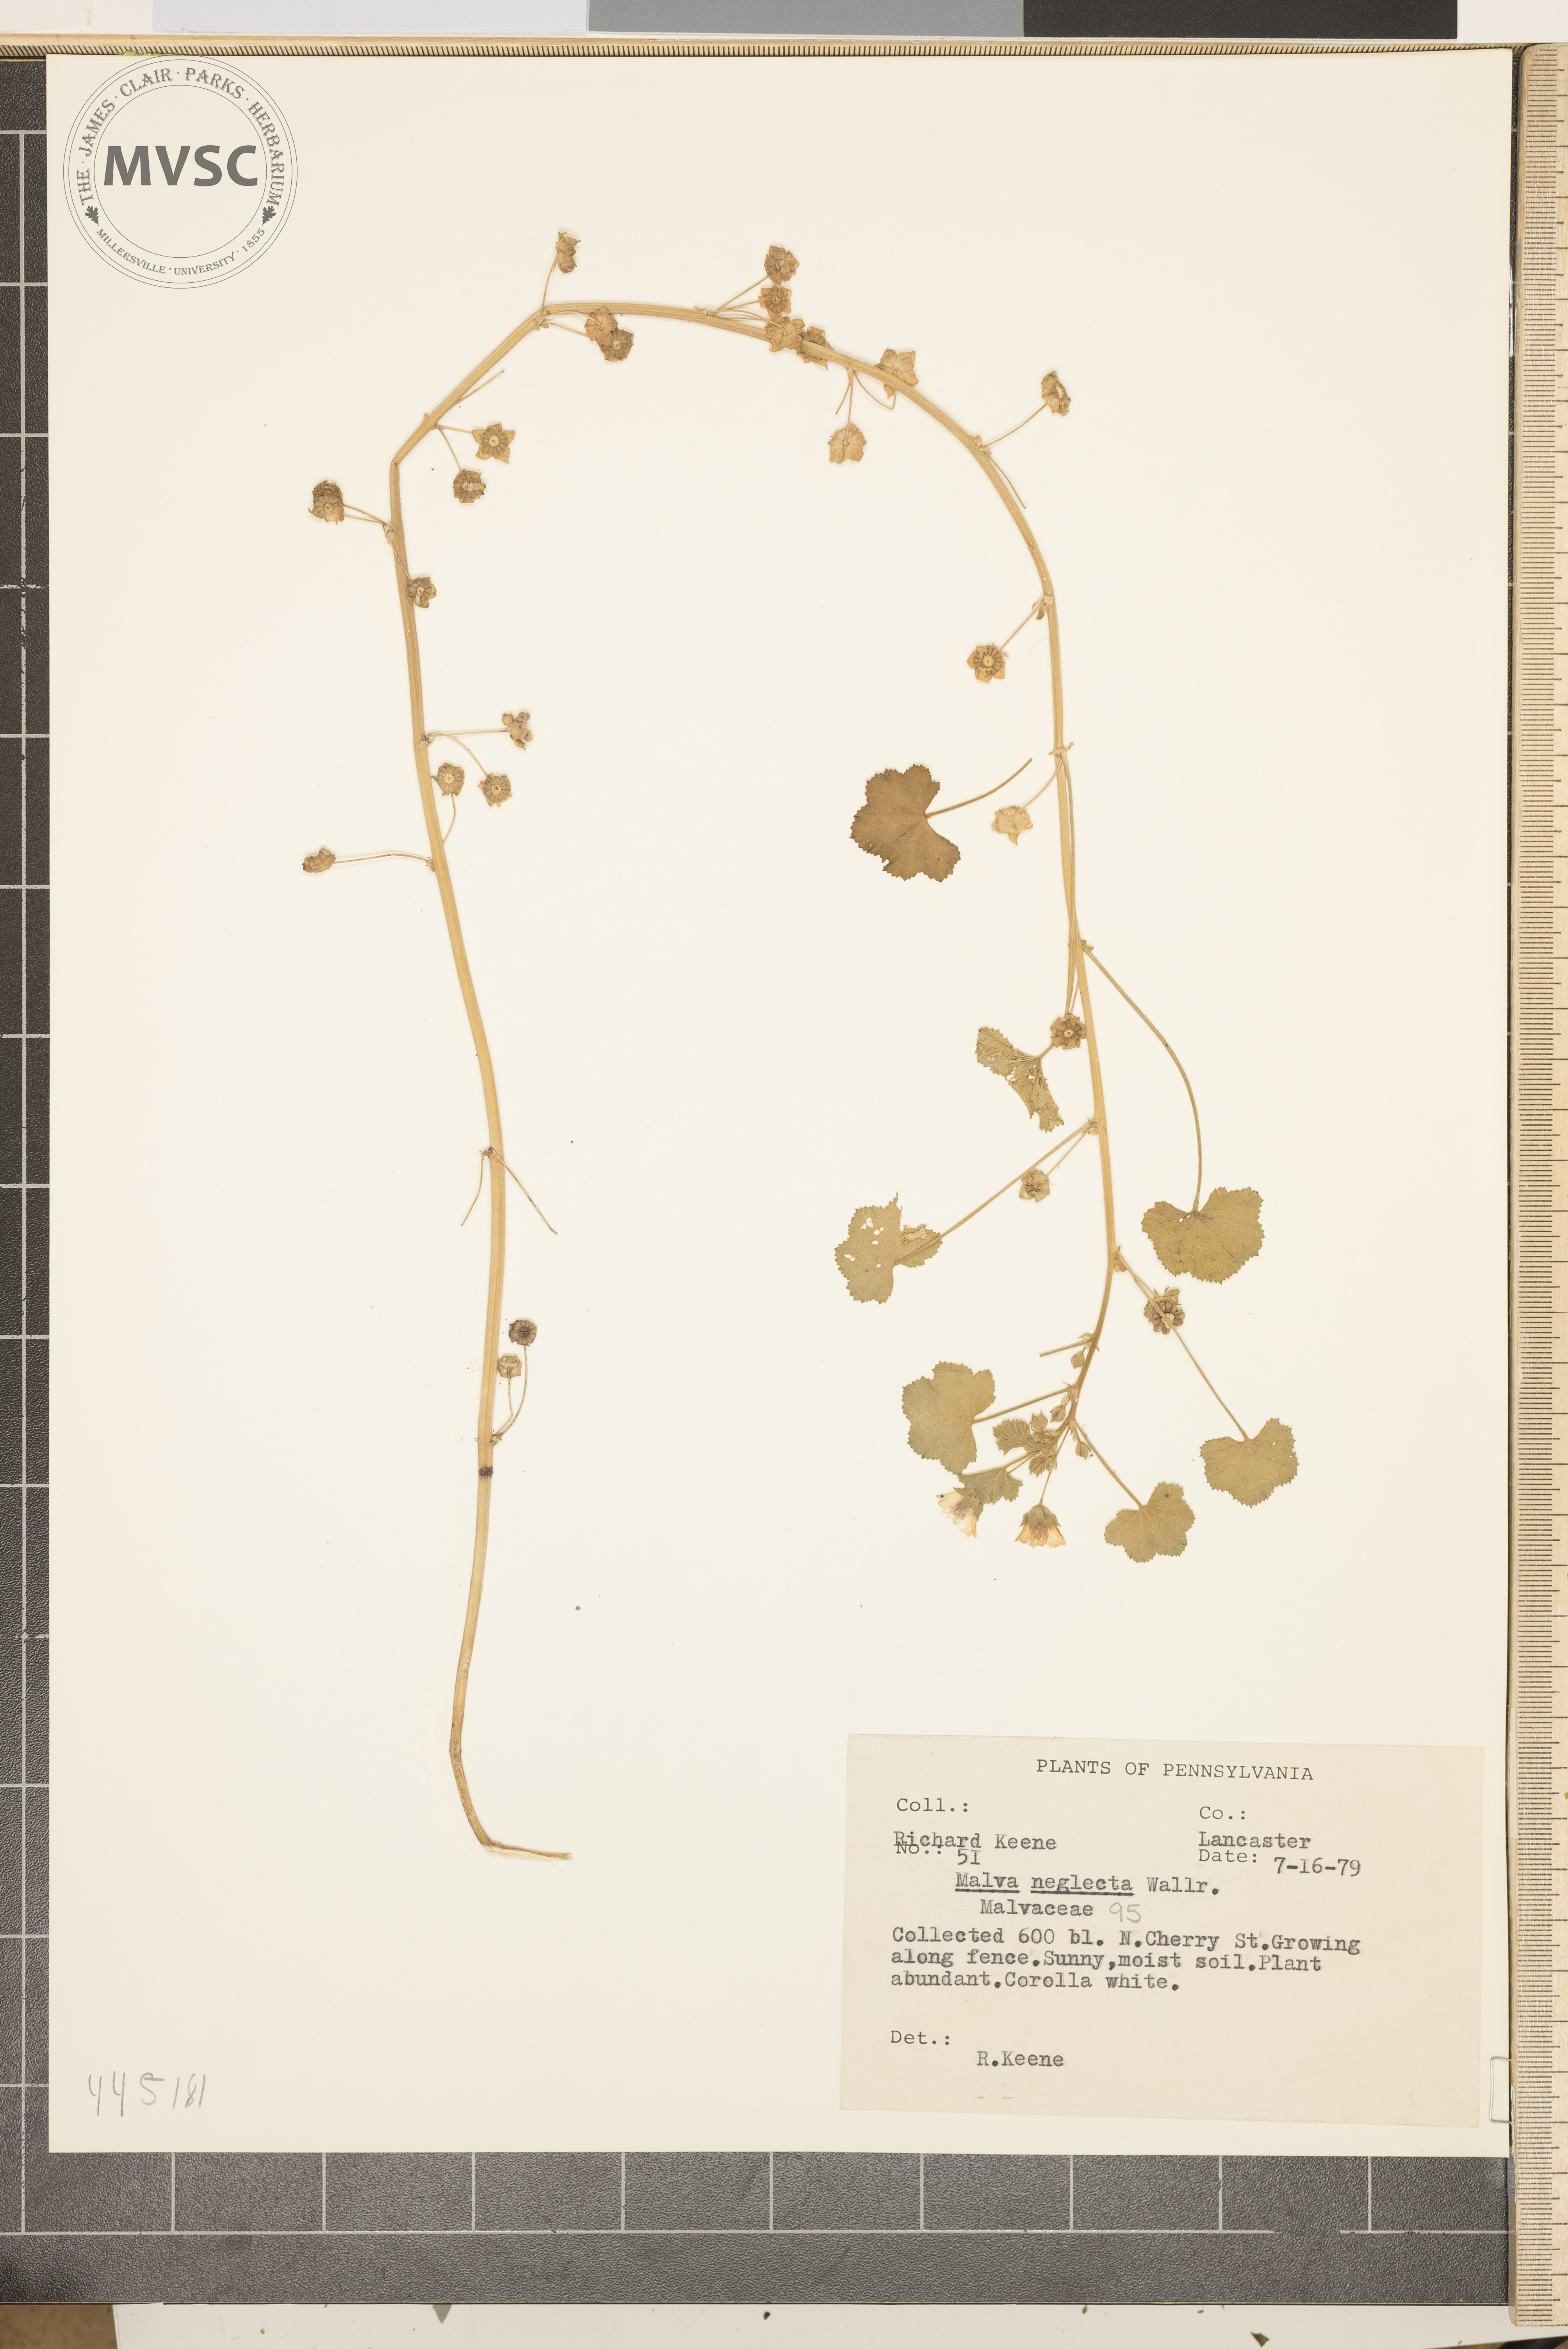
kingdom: Plantae
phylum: Tracheophyta
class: Magnoliopsida
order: Malvales
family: Malvaceae
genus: Malva
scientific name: Malva neglecta
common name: Common mallow
